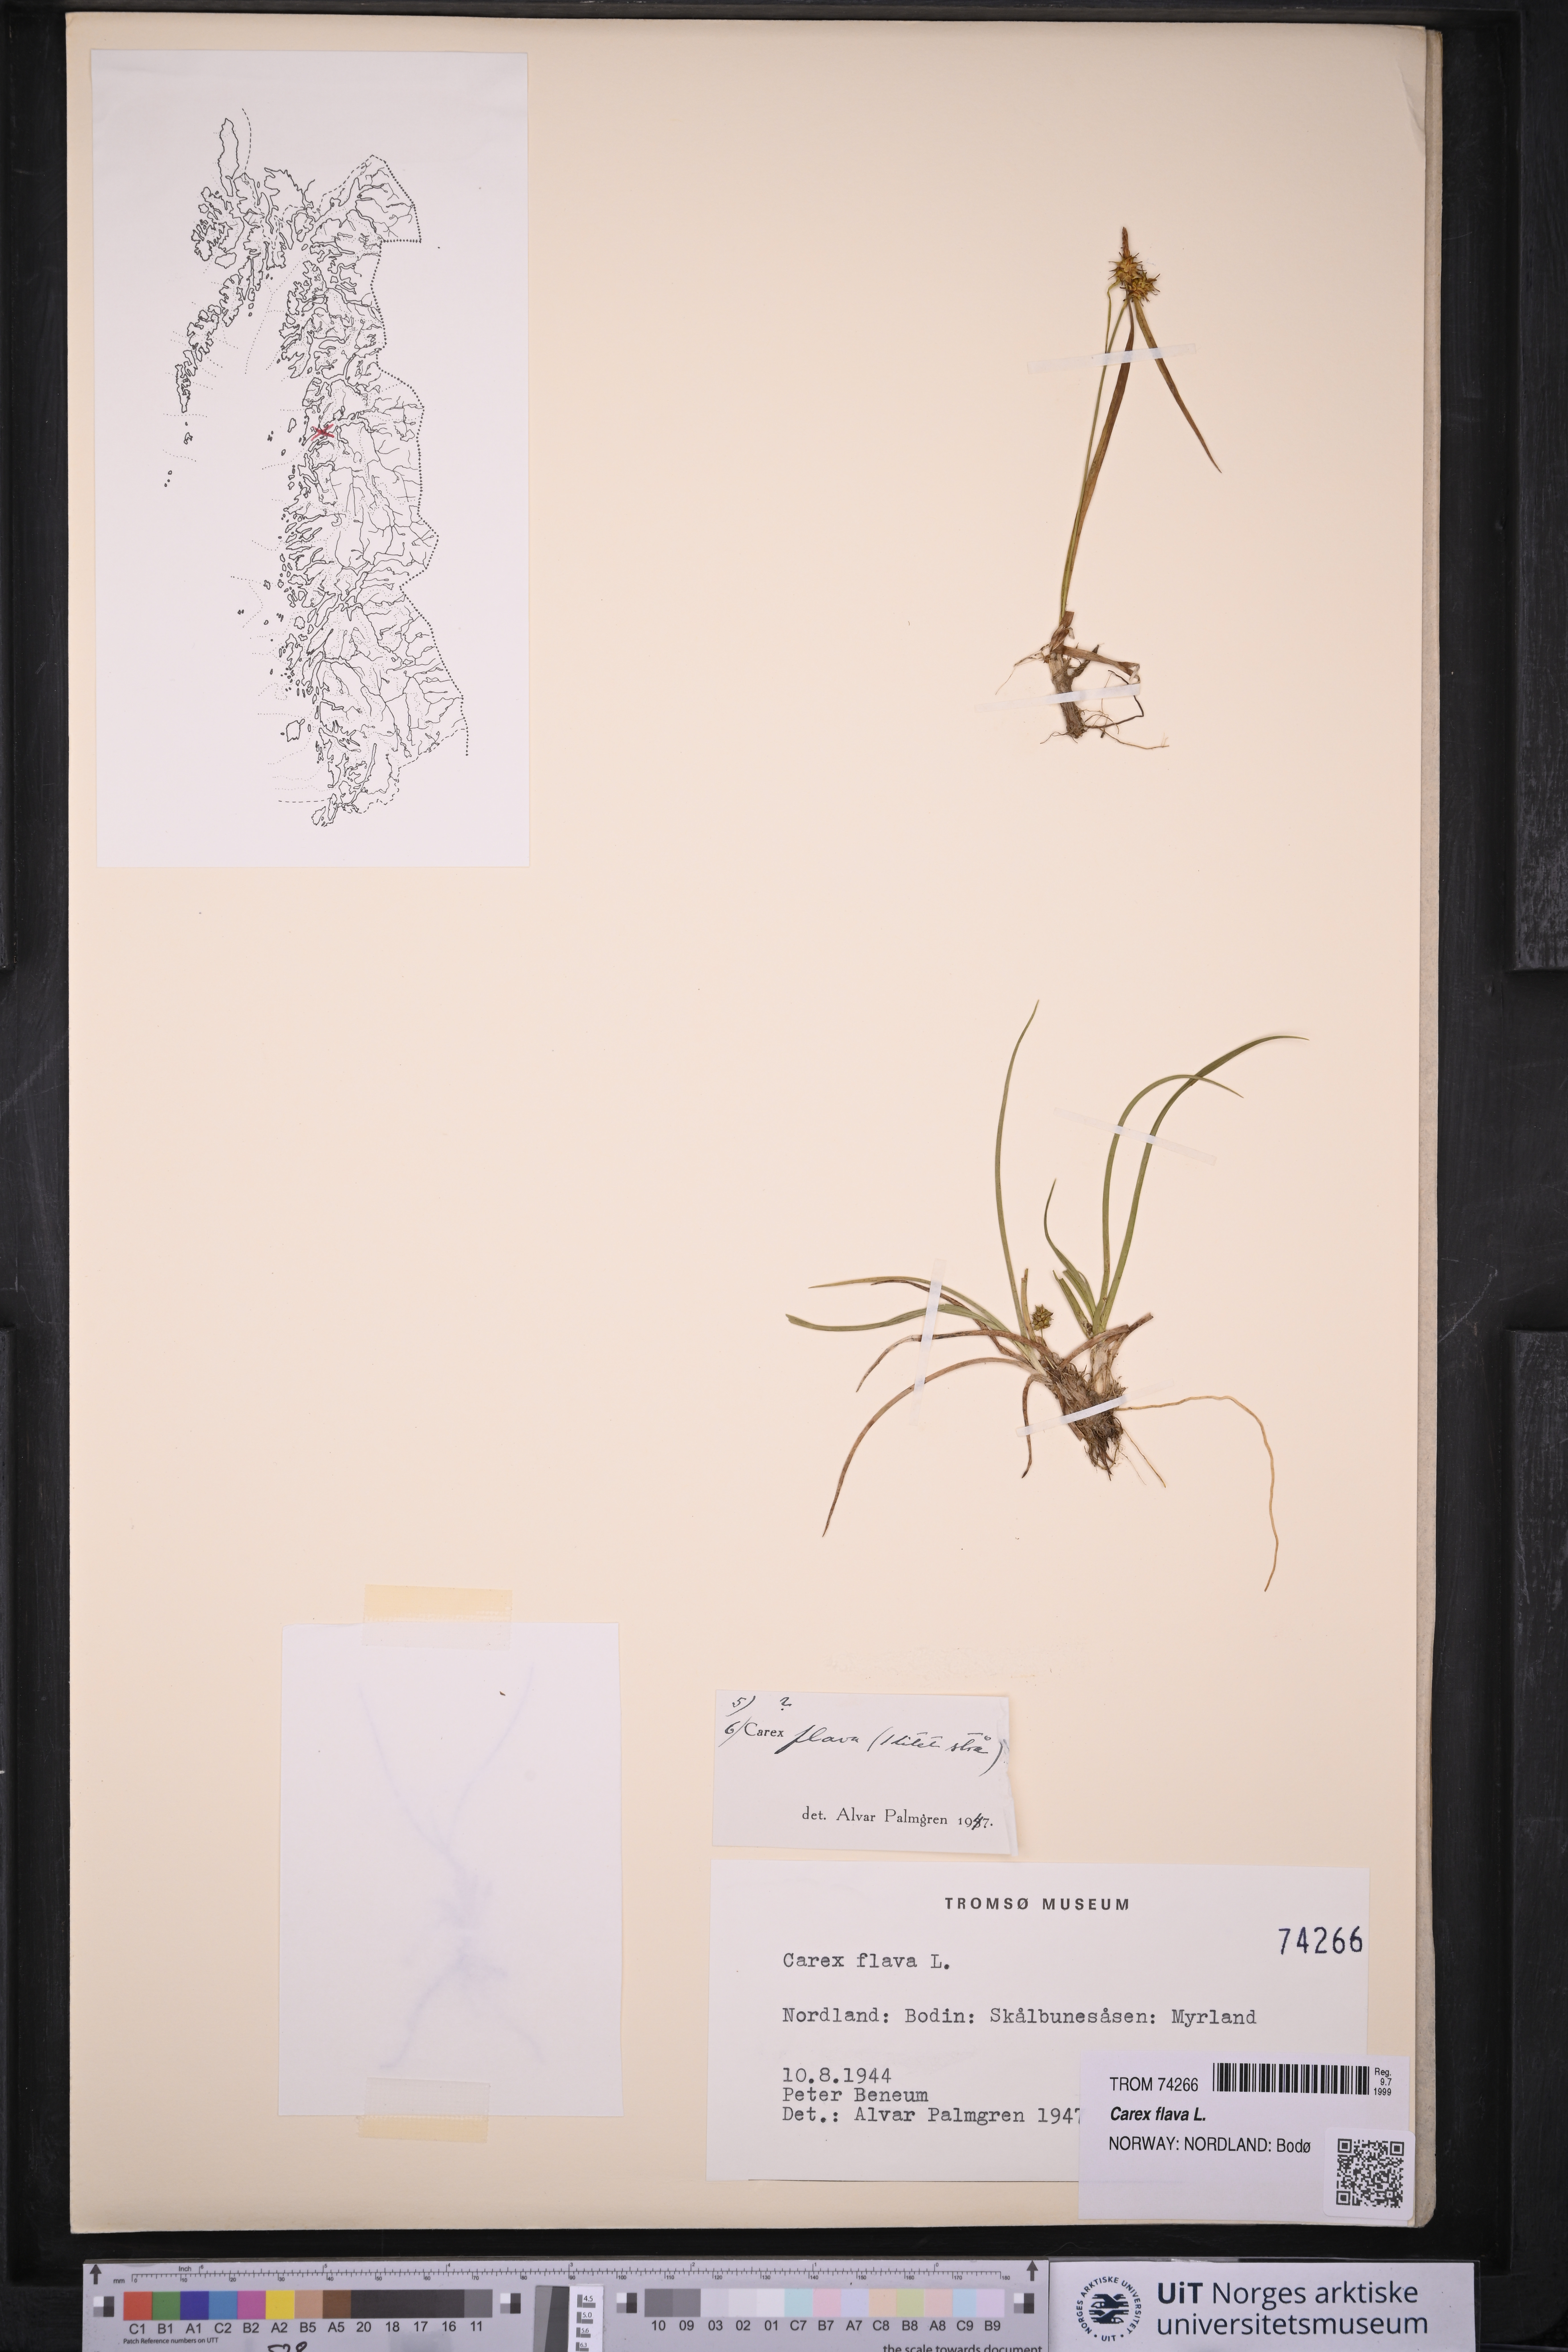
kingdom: Plantae
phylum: Tracheophyta
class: Liliopsida
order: Poales
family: Cyperaceae
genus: Carex
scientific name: Carex flava
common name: Large yellow-sedge
